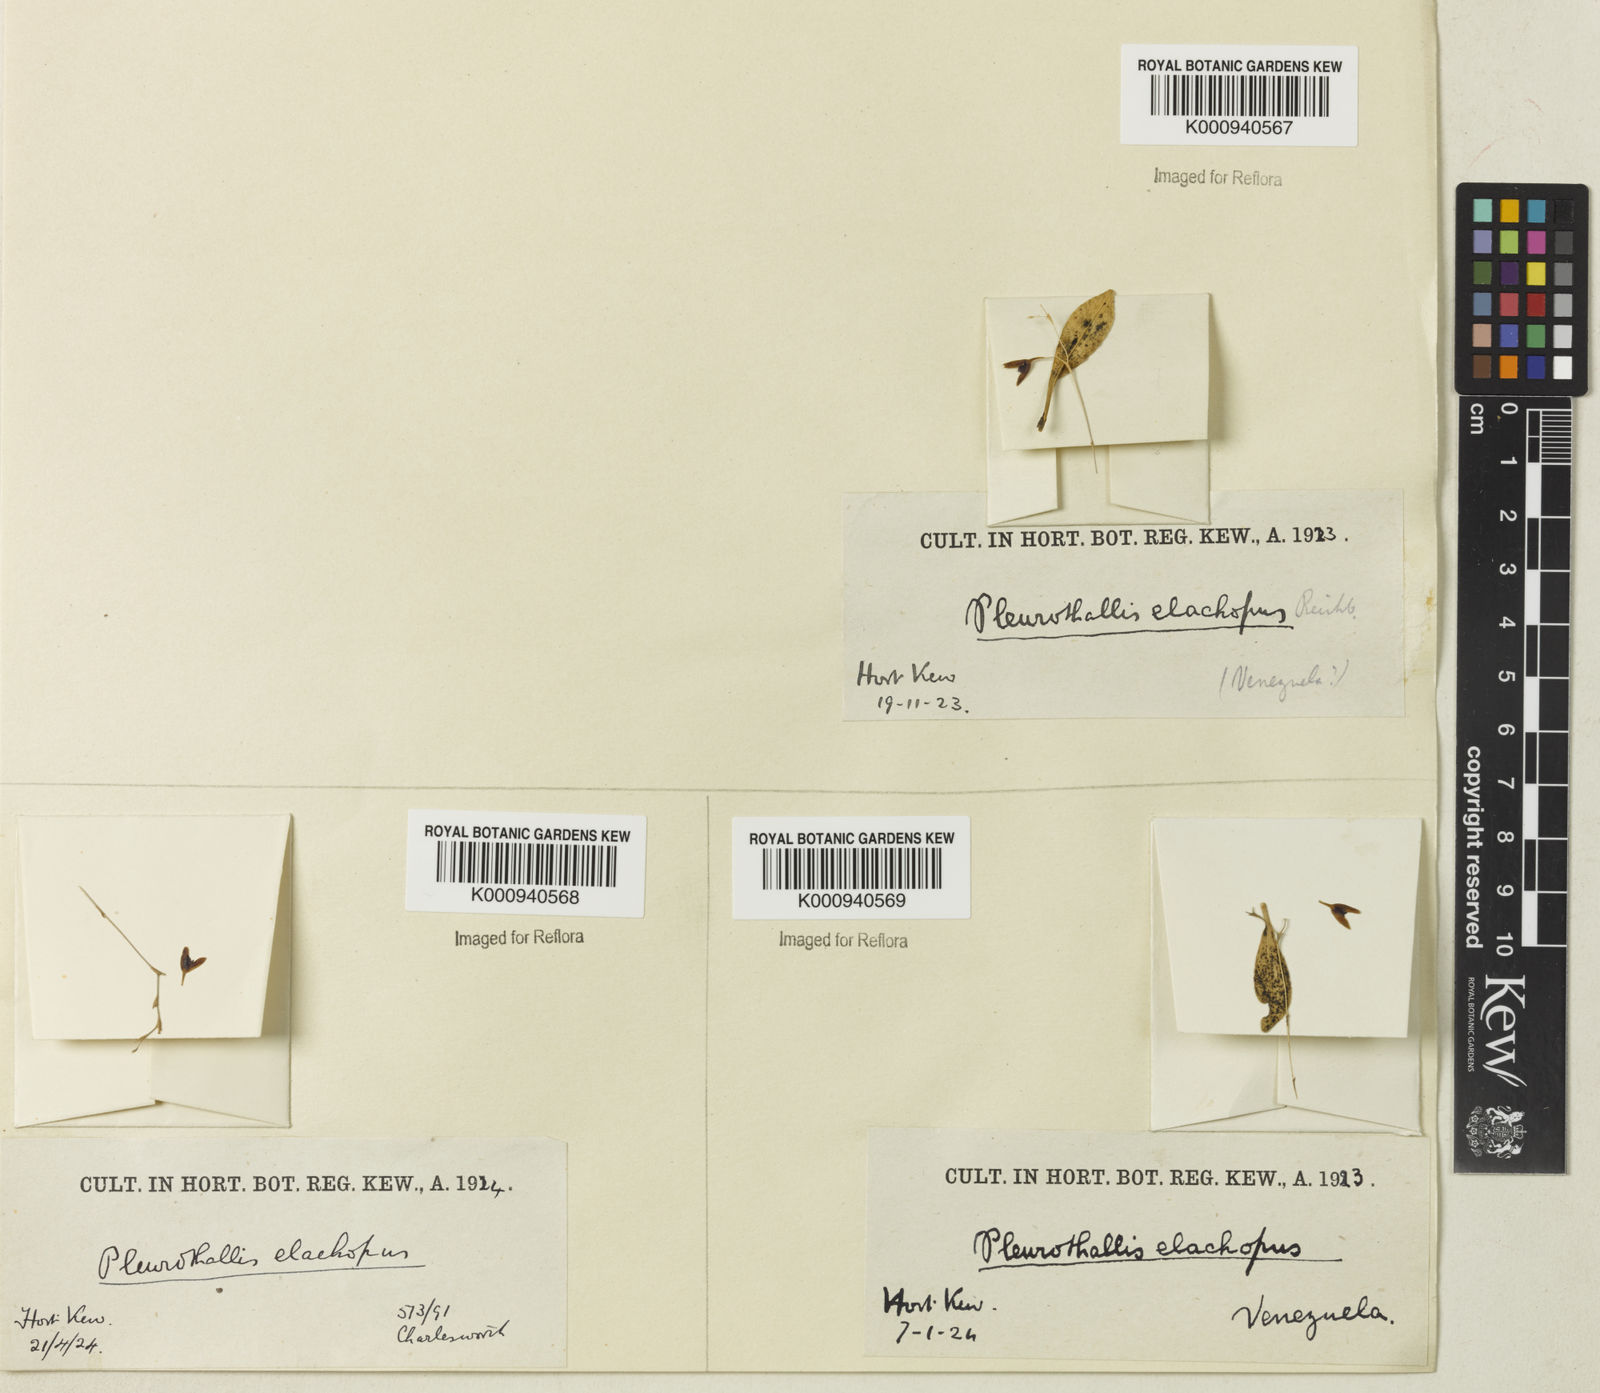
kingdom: Plantae
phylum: Tracheophyta
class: Liliopsida
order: Asparagales
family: Orchidaceae
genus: Stelis
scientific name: Stelis
